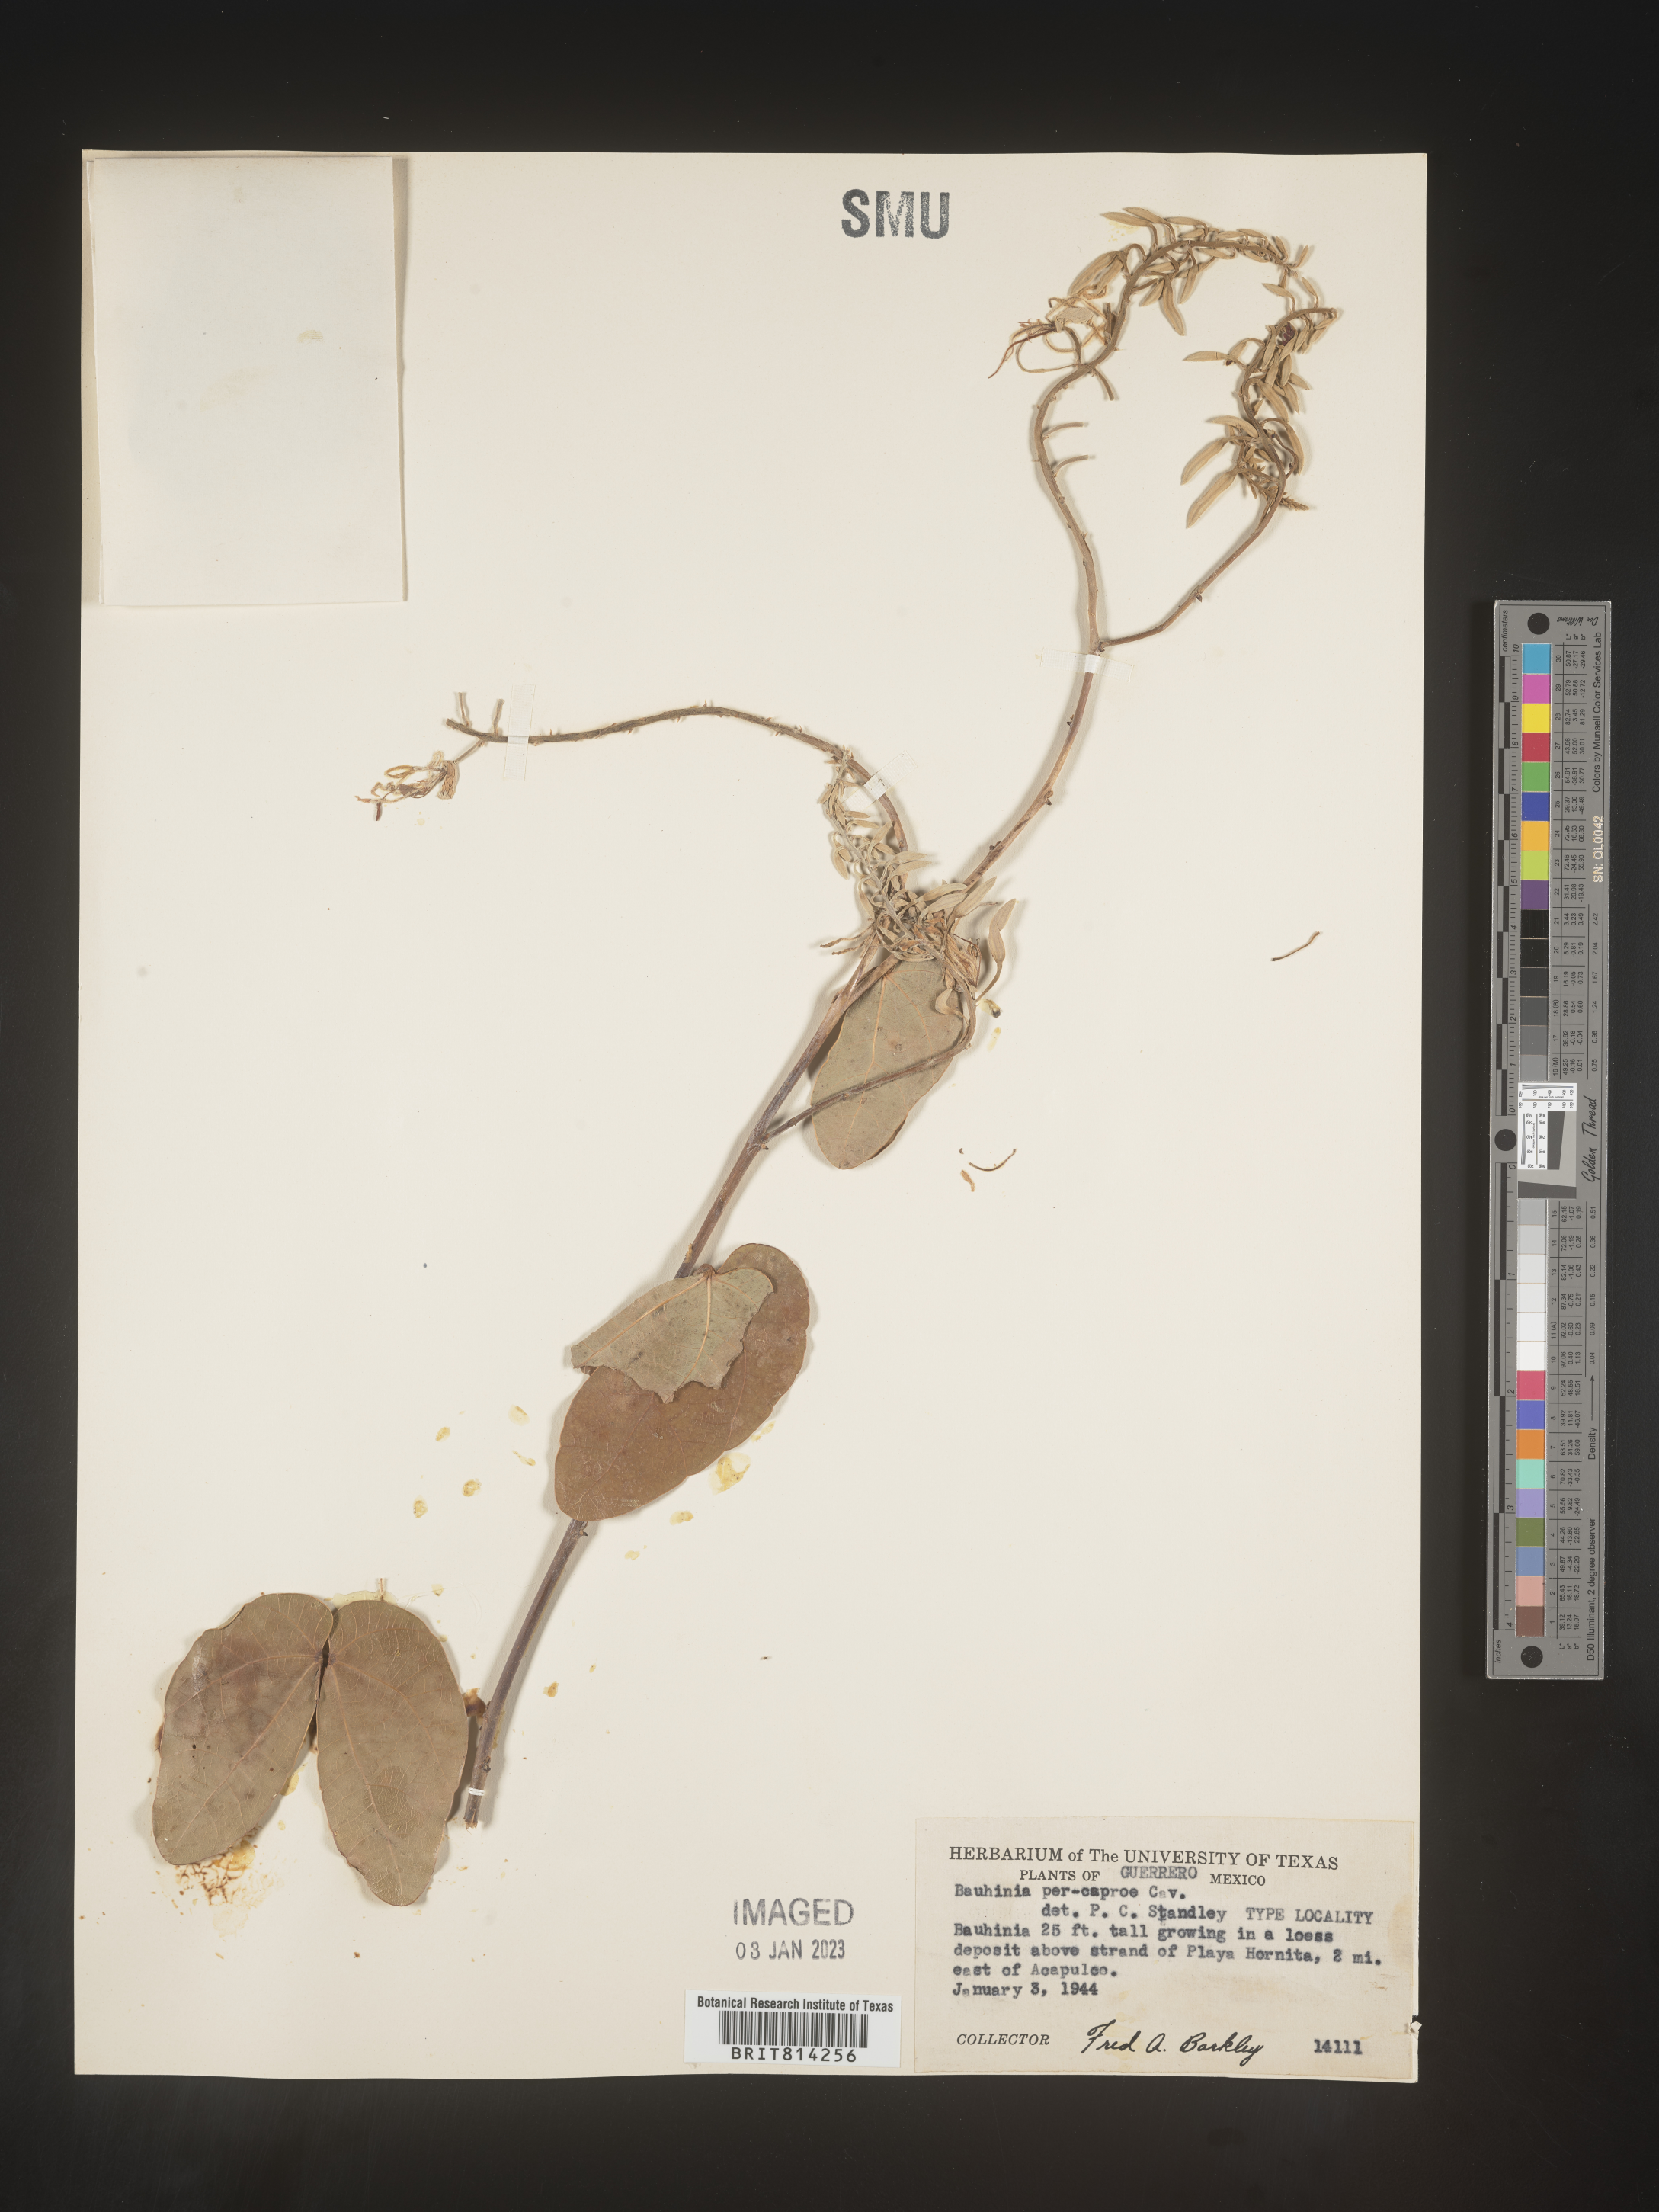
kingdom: Plantae
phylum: Tracheophyta
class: Magnoliopsida
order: Fabales
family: Fabaceae
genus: Bauhinia
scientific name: Bauhinia
